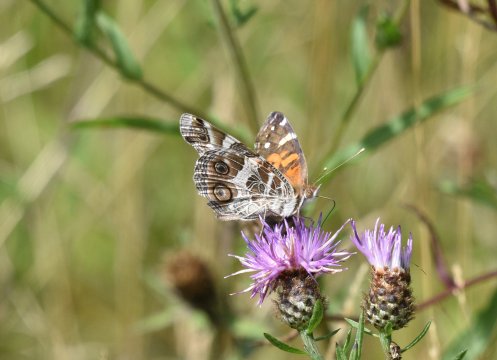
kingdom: Animalia
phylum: Arthropoda
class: Insecta
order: Lepidoptera
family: Nymphalidae
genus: Vanessa
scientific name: Vanessa virginiensis
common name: American Lady
